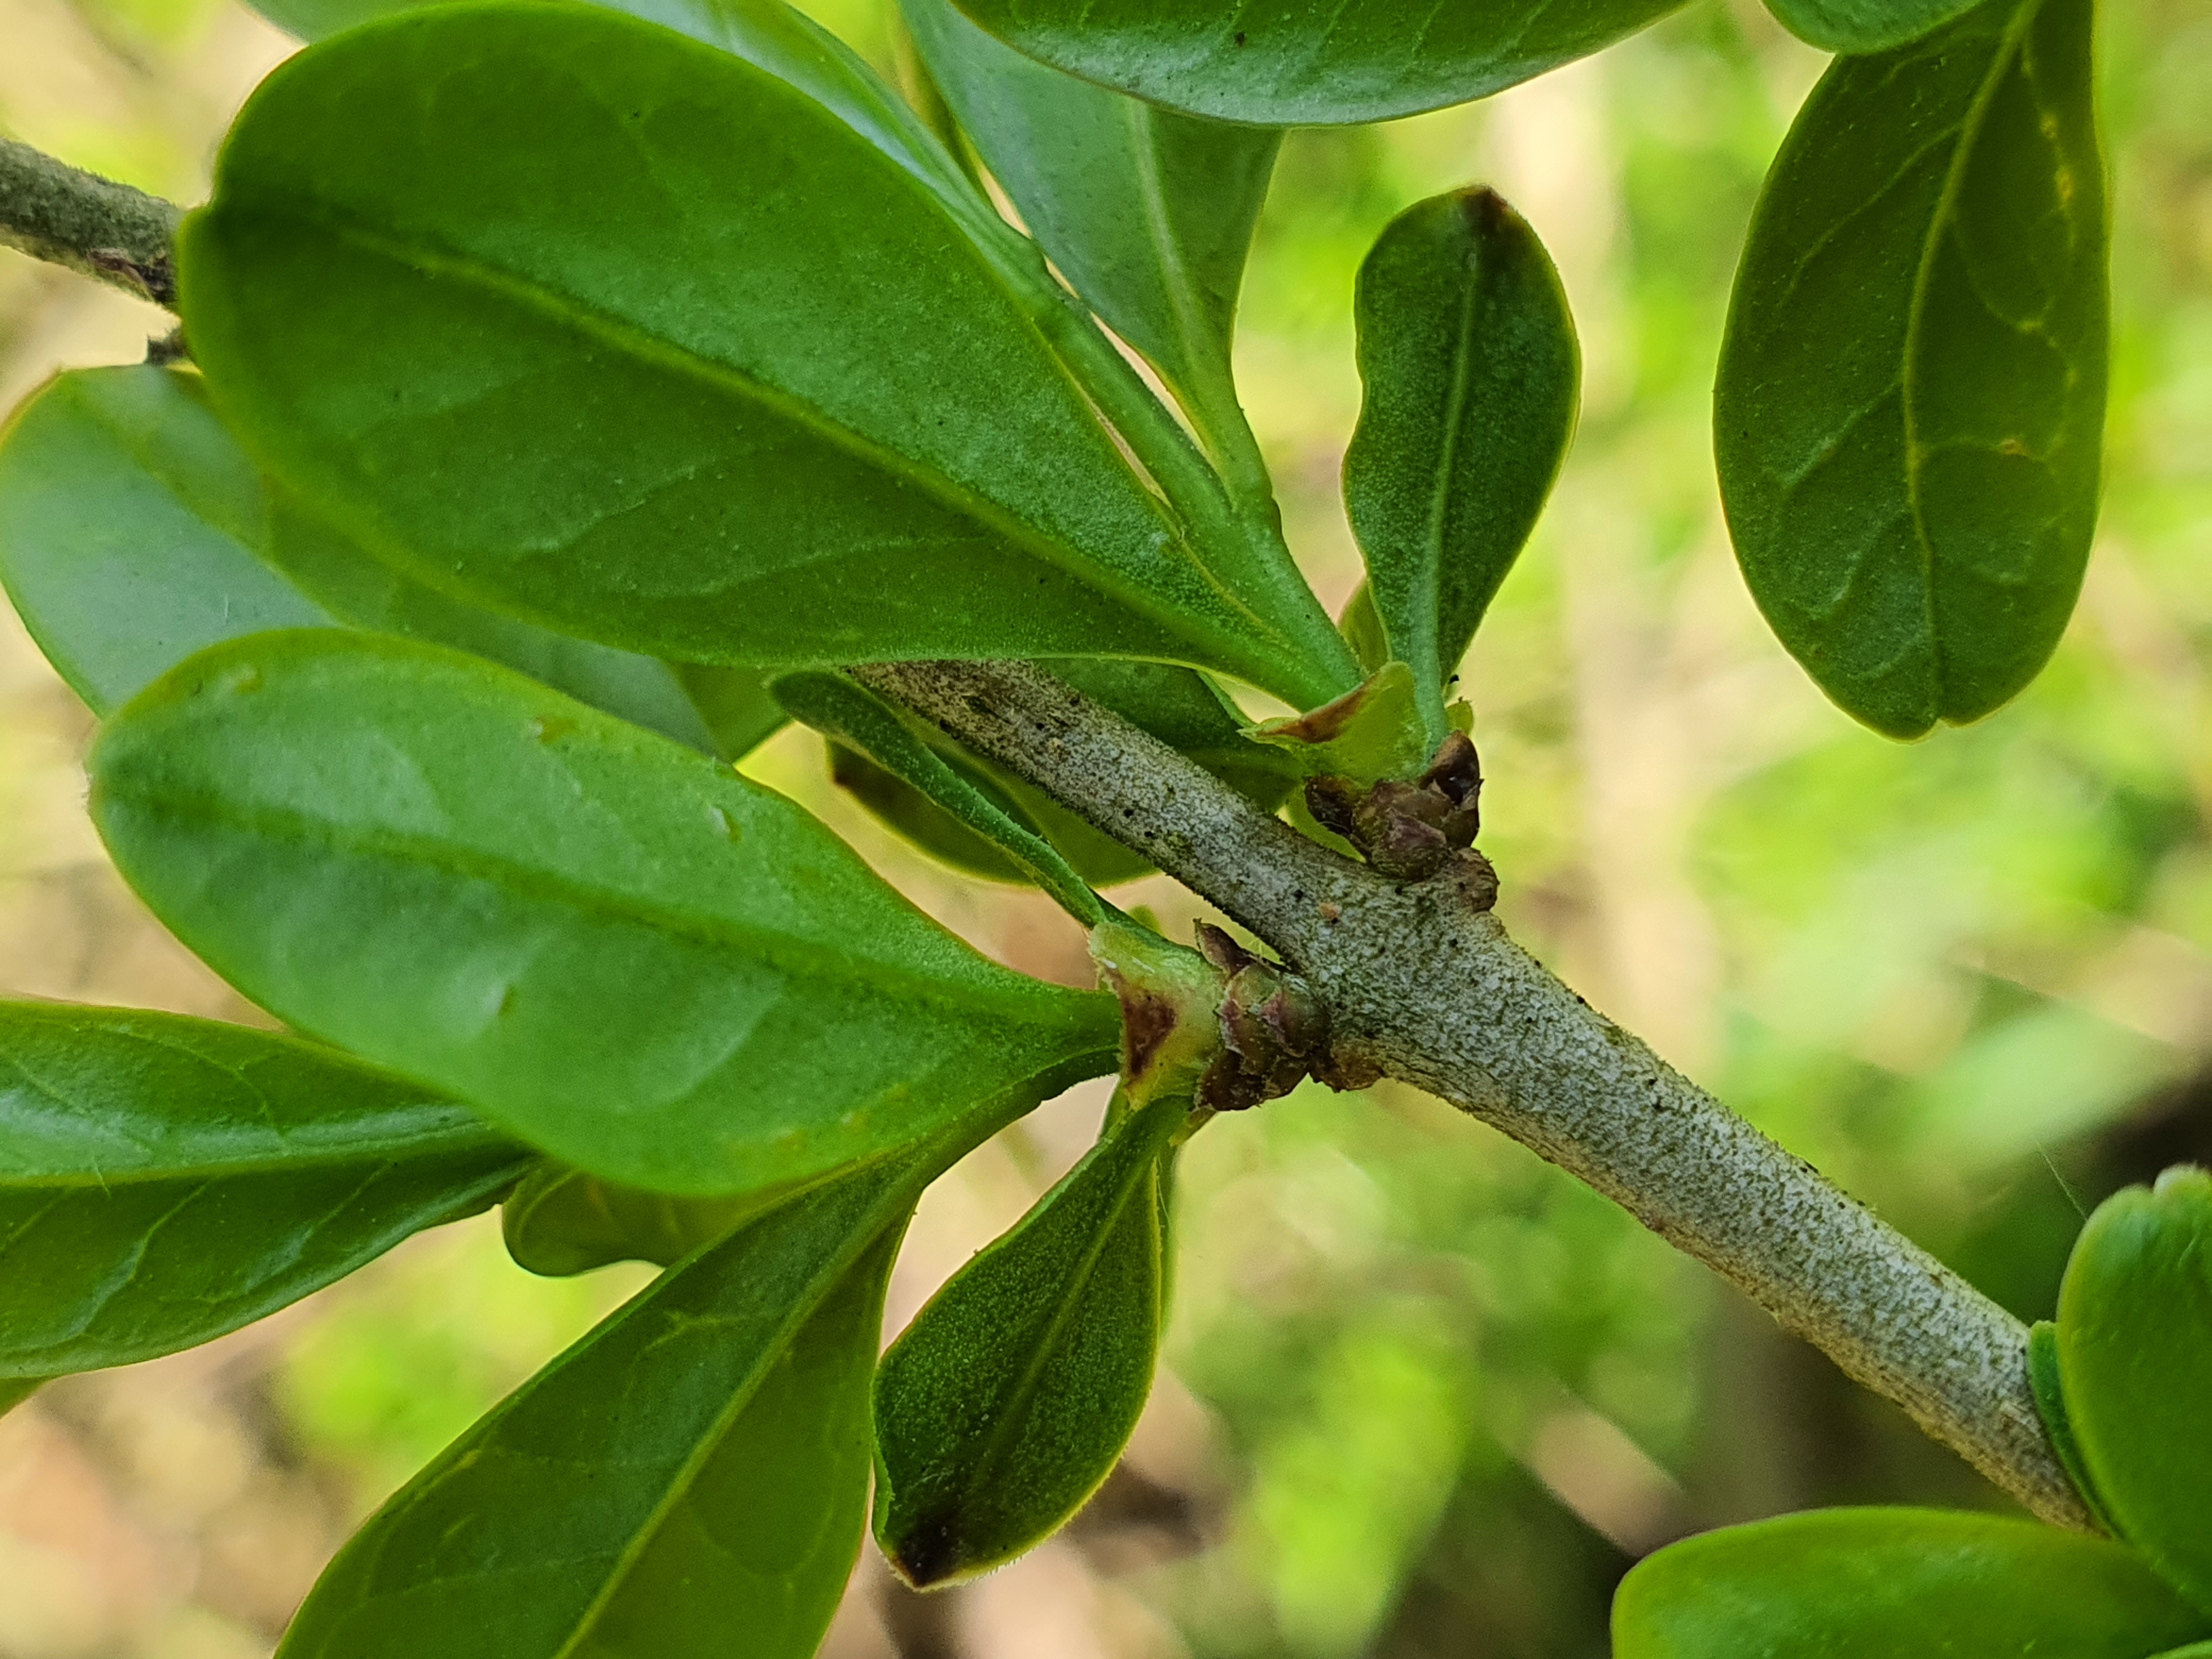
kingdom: Plantae
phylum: Tracheophyta
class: Magnoliopsida
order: Lamiales
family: Oleaceae
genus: Ligustrum
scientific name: Ligustrum vulgare
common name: Liguster
